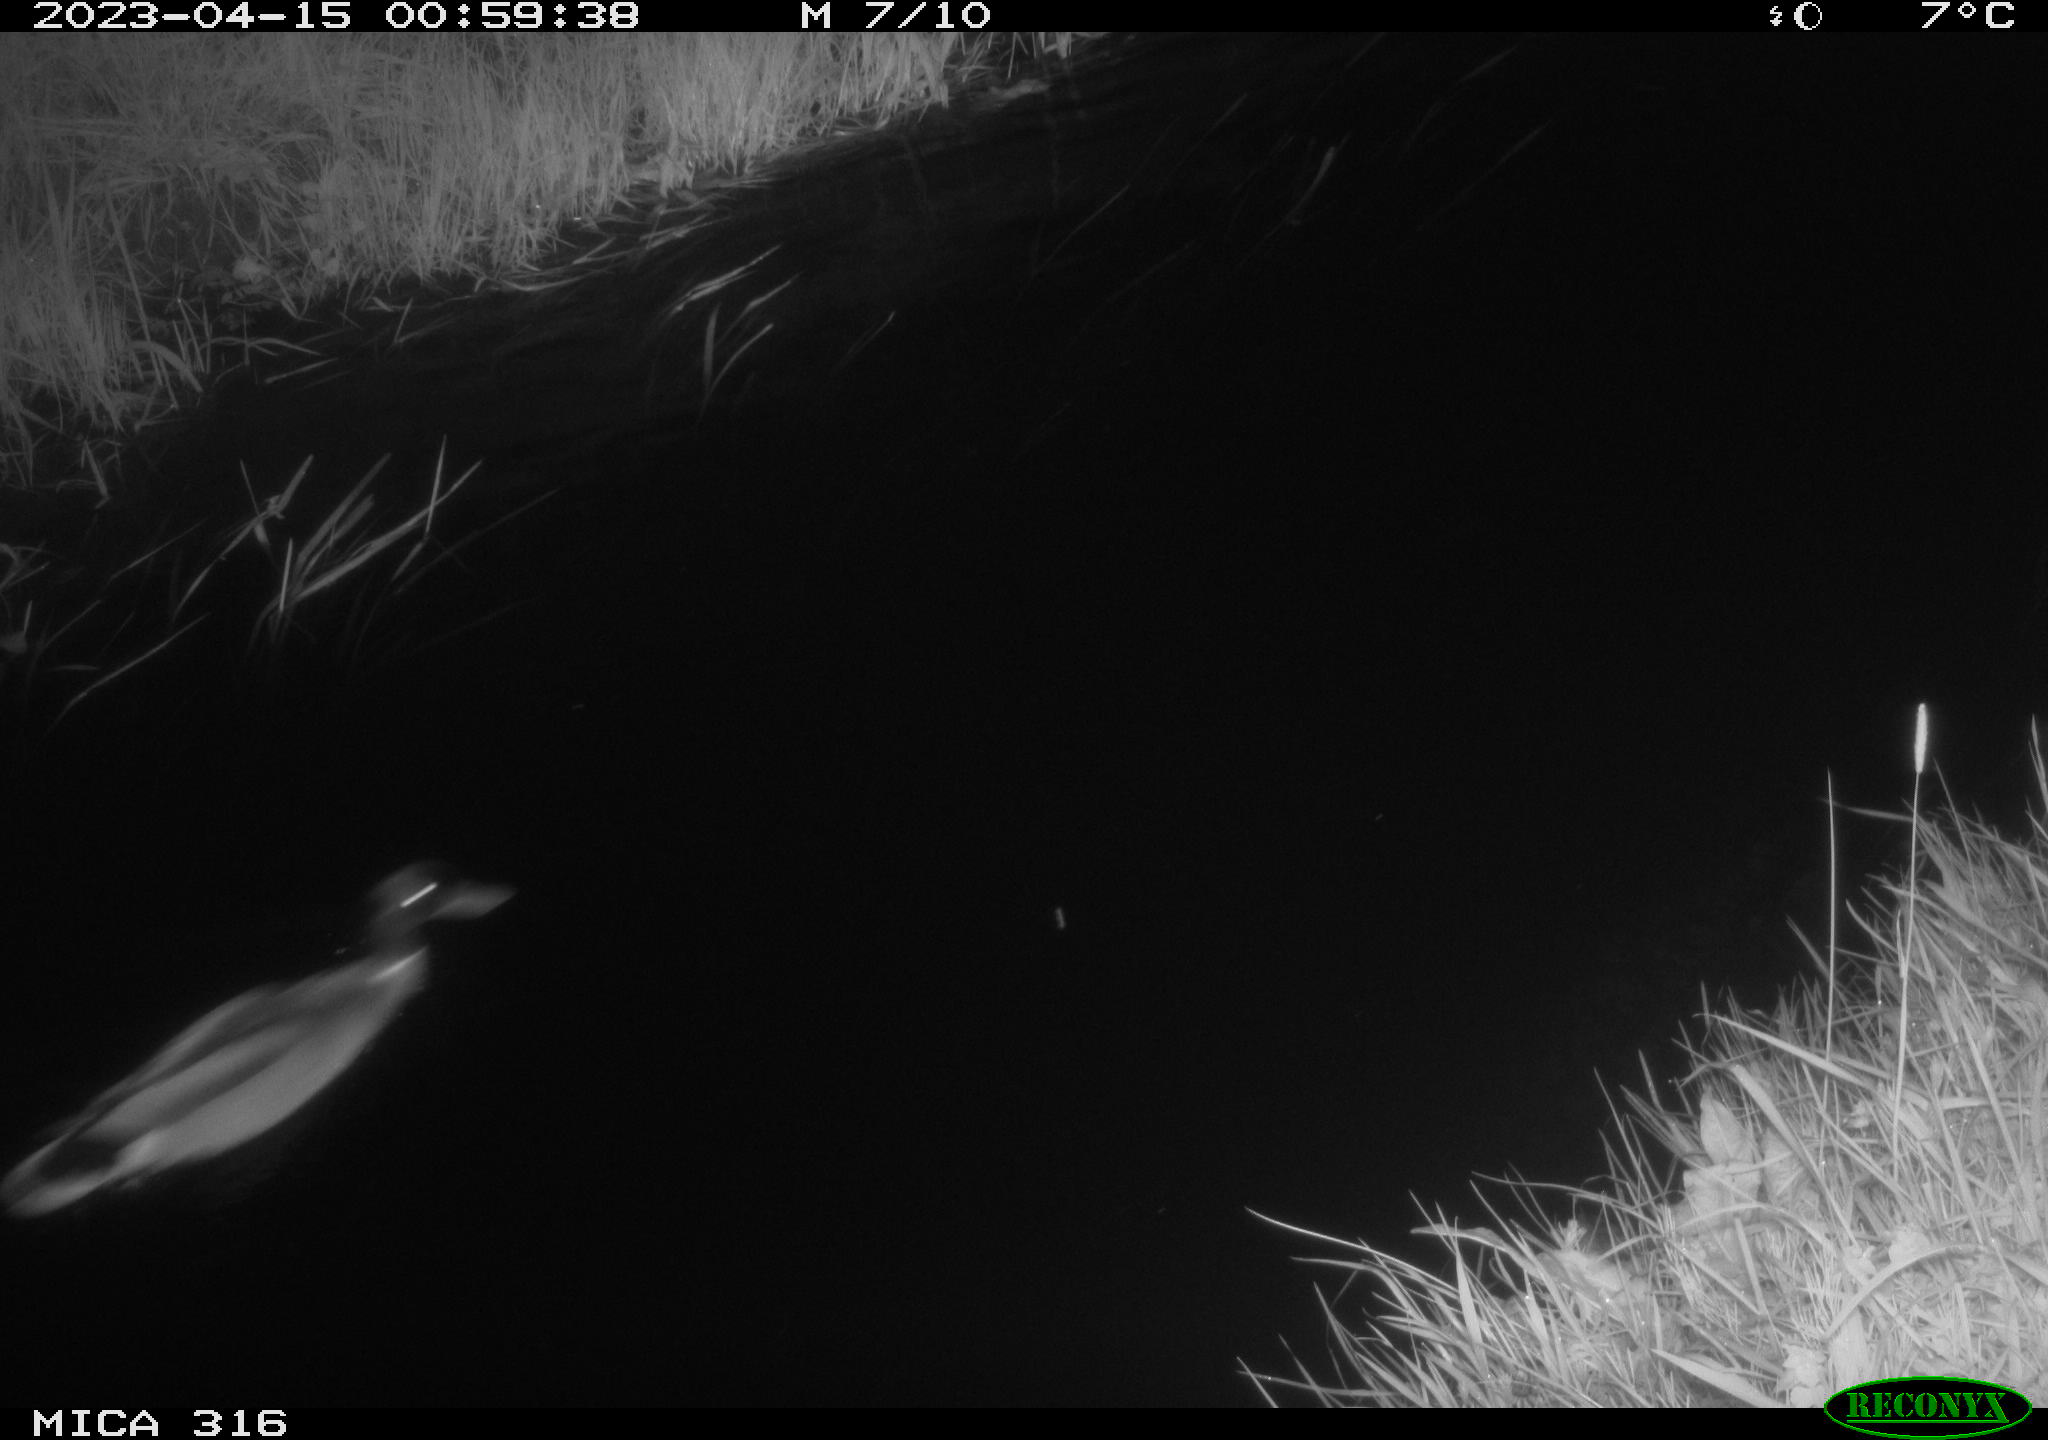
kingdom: Animalia
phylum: Chordata
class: Aves
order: Anseriformes
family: Anatidae
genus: Anas
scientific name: Anas
